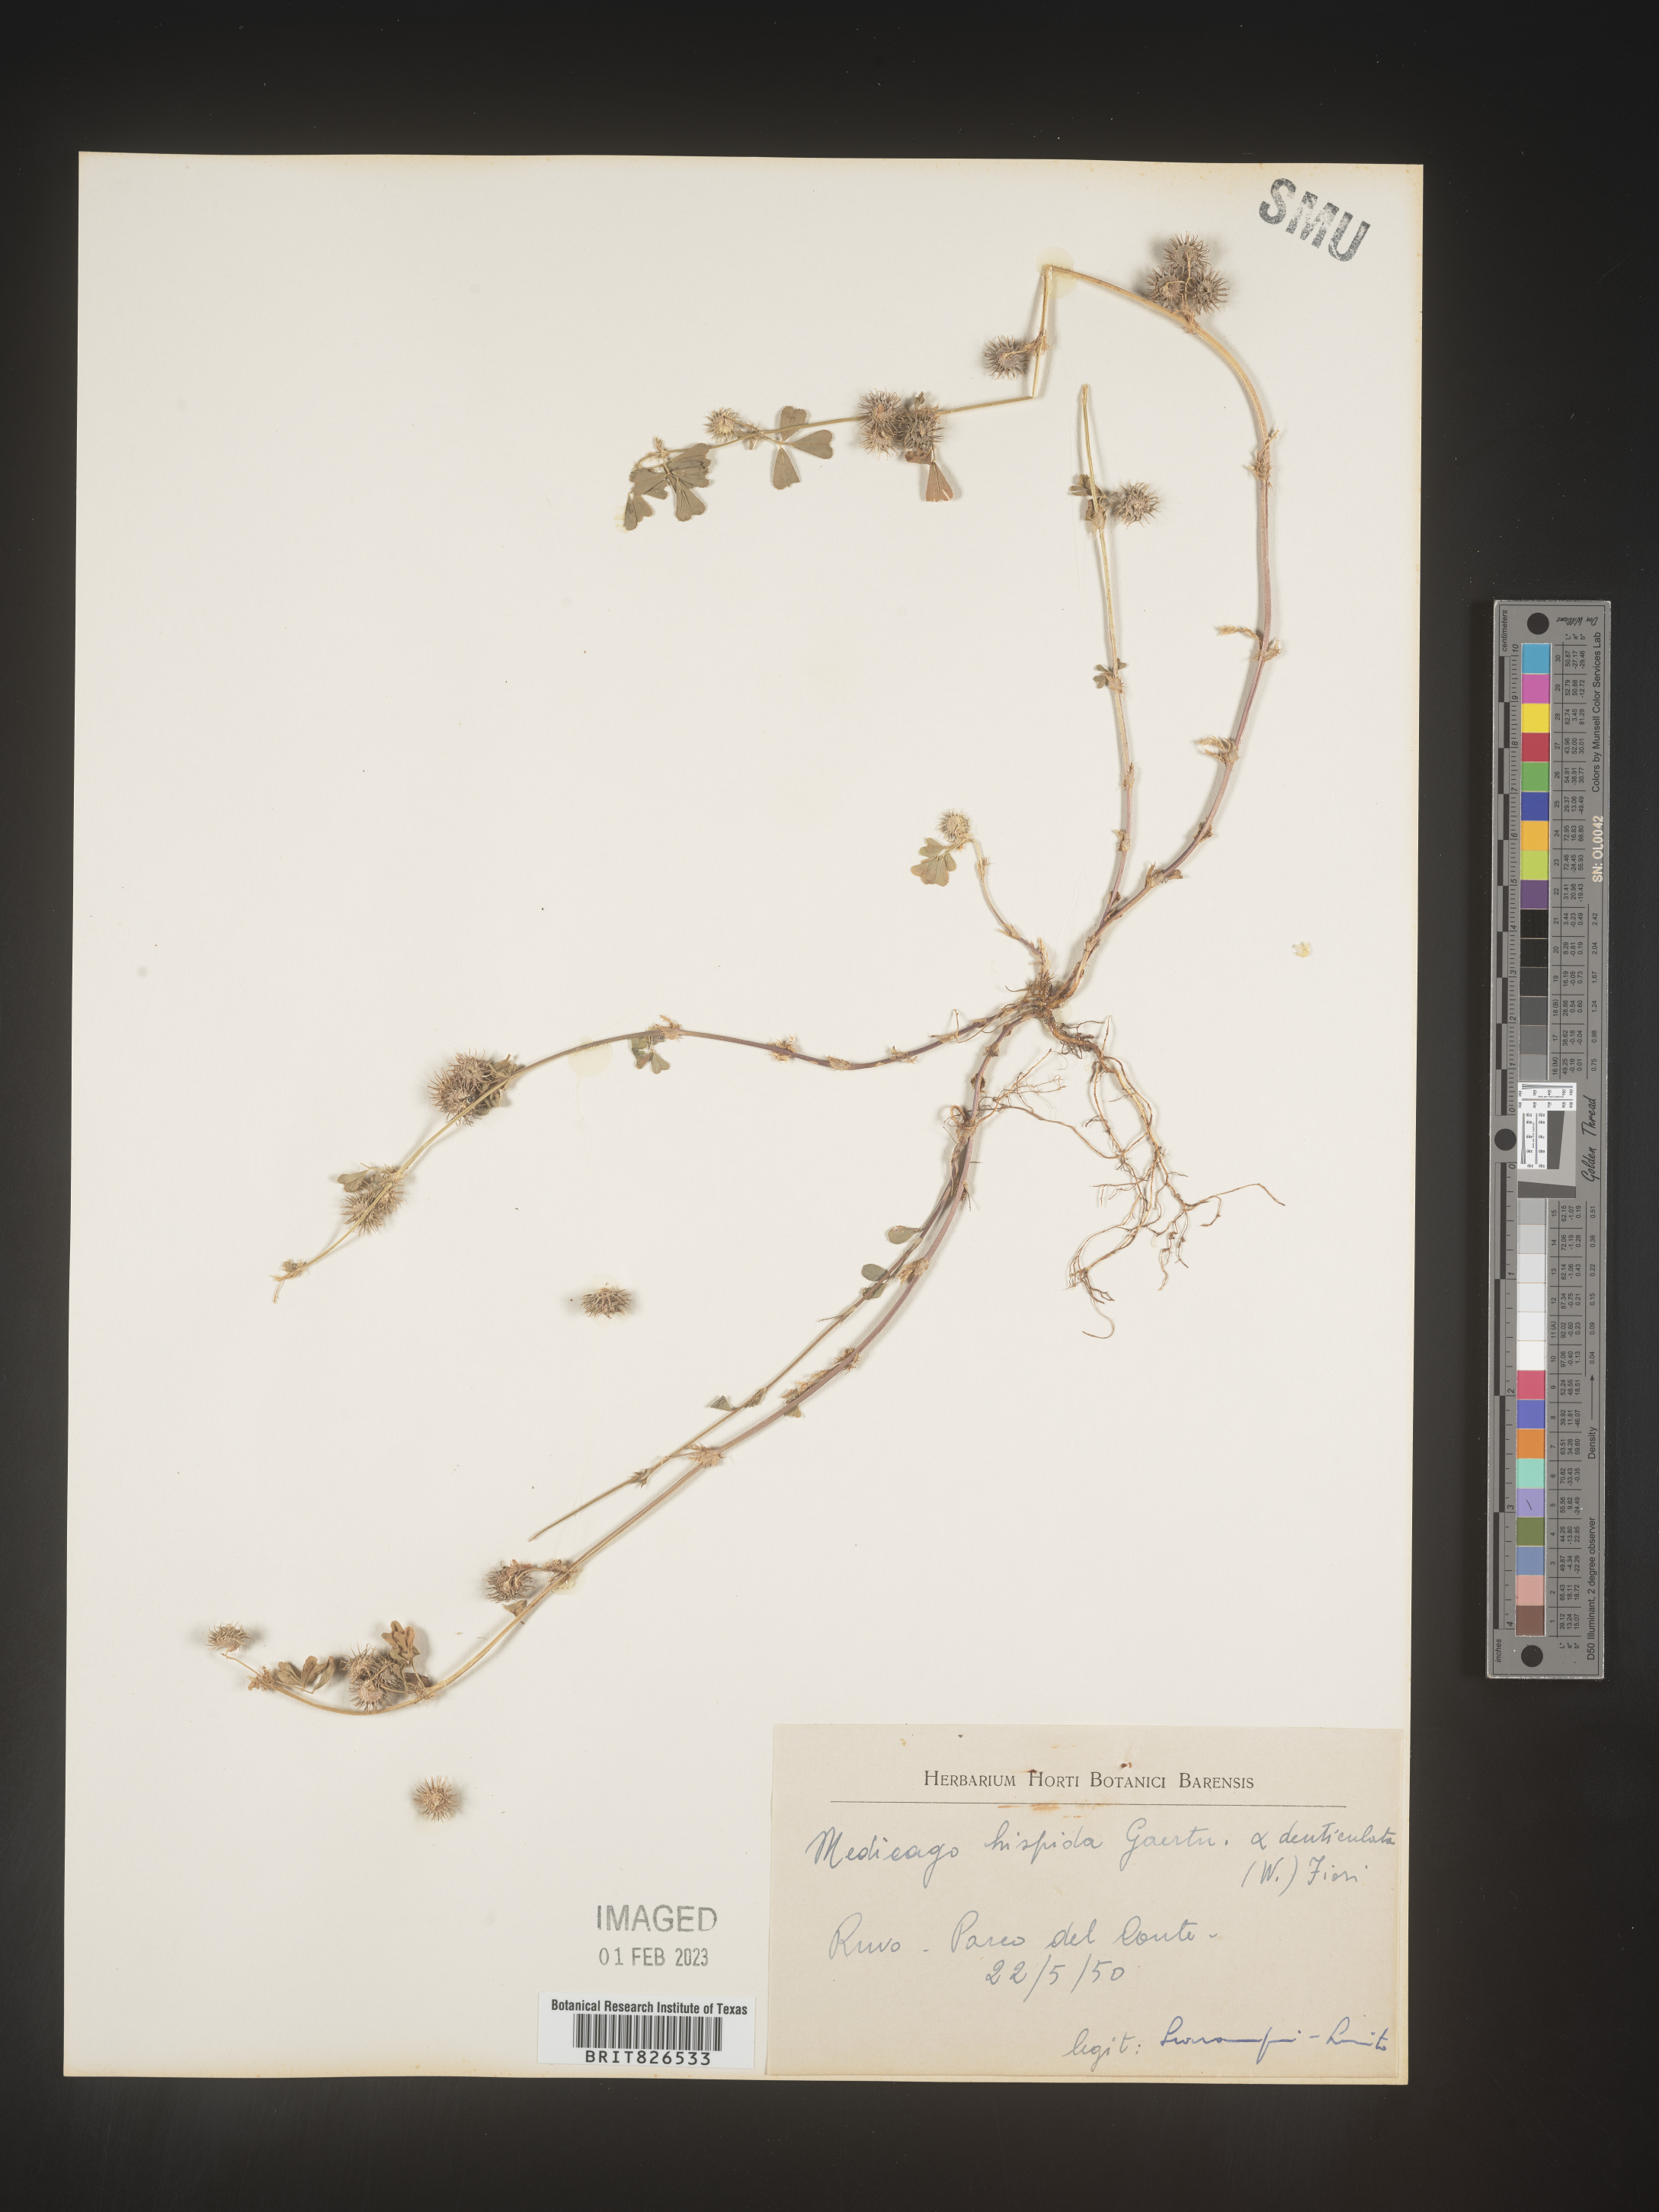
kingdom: Plantae
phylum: Tracheophyta
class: Magnoliopsida
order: Fabales
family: Fabaceae
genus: Medicago
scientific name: Medicago
